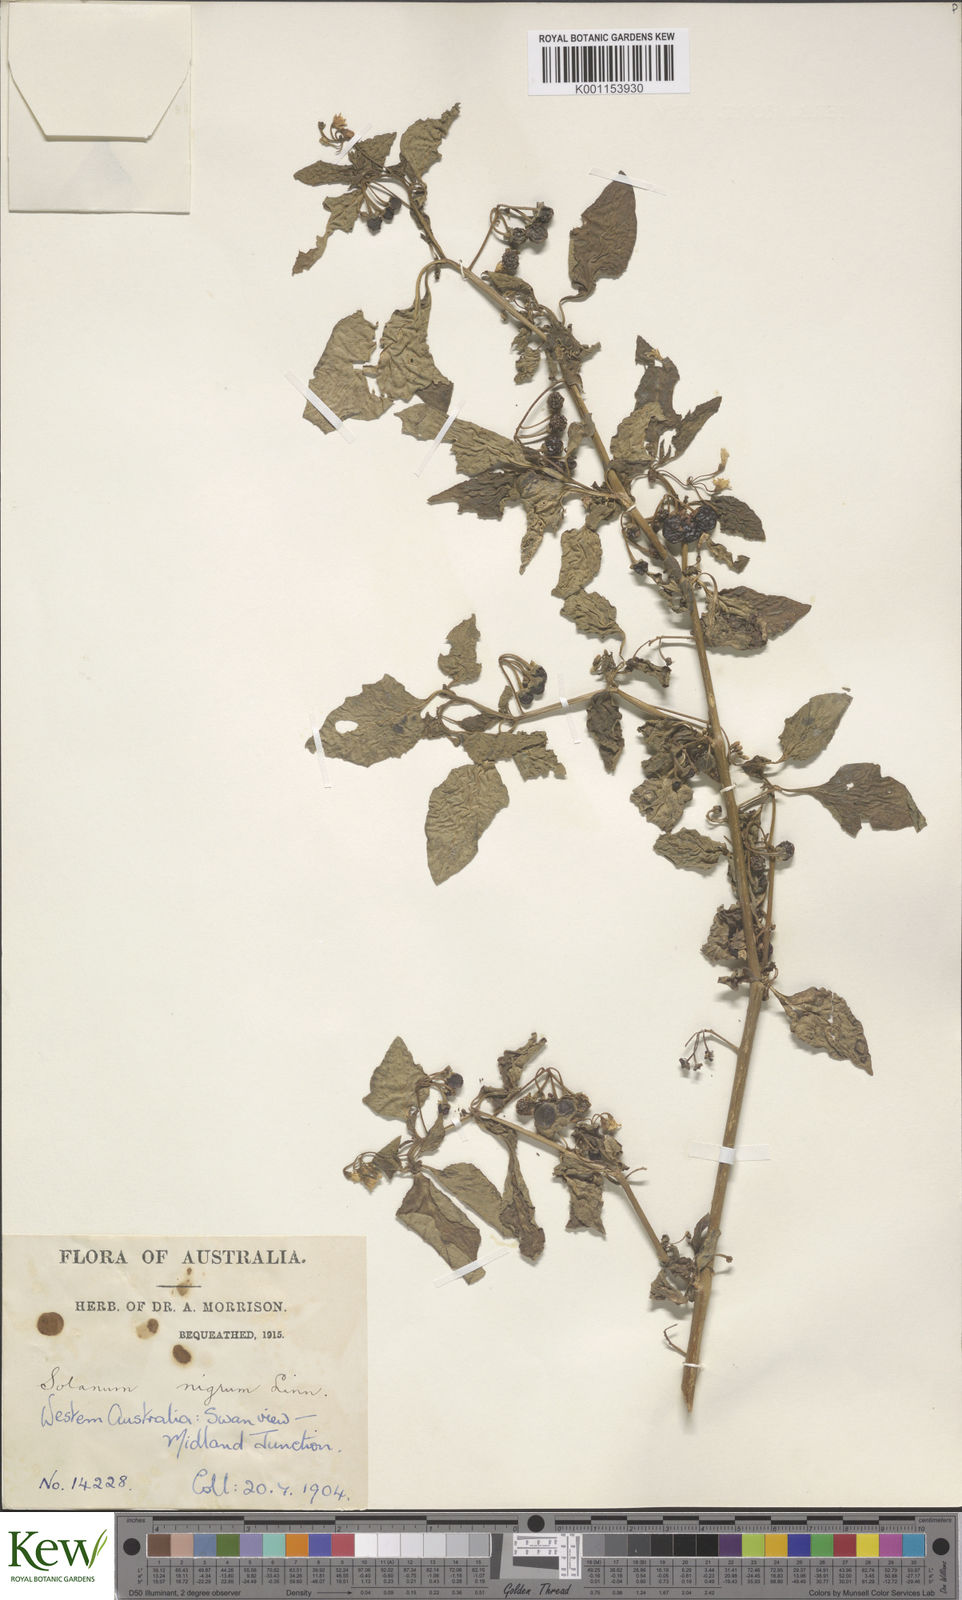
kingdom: Plantae
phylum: Tracheophyta
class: Magnoliopsida
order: Solanales
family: Solanaceae
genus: Solanum
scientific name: Solanum nigrum
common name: Black nightshade
